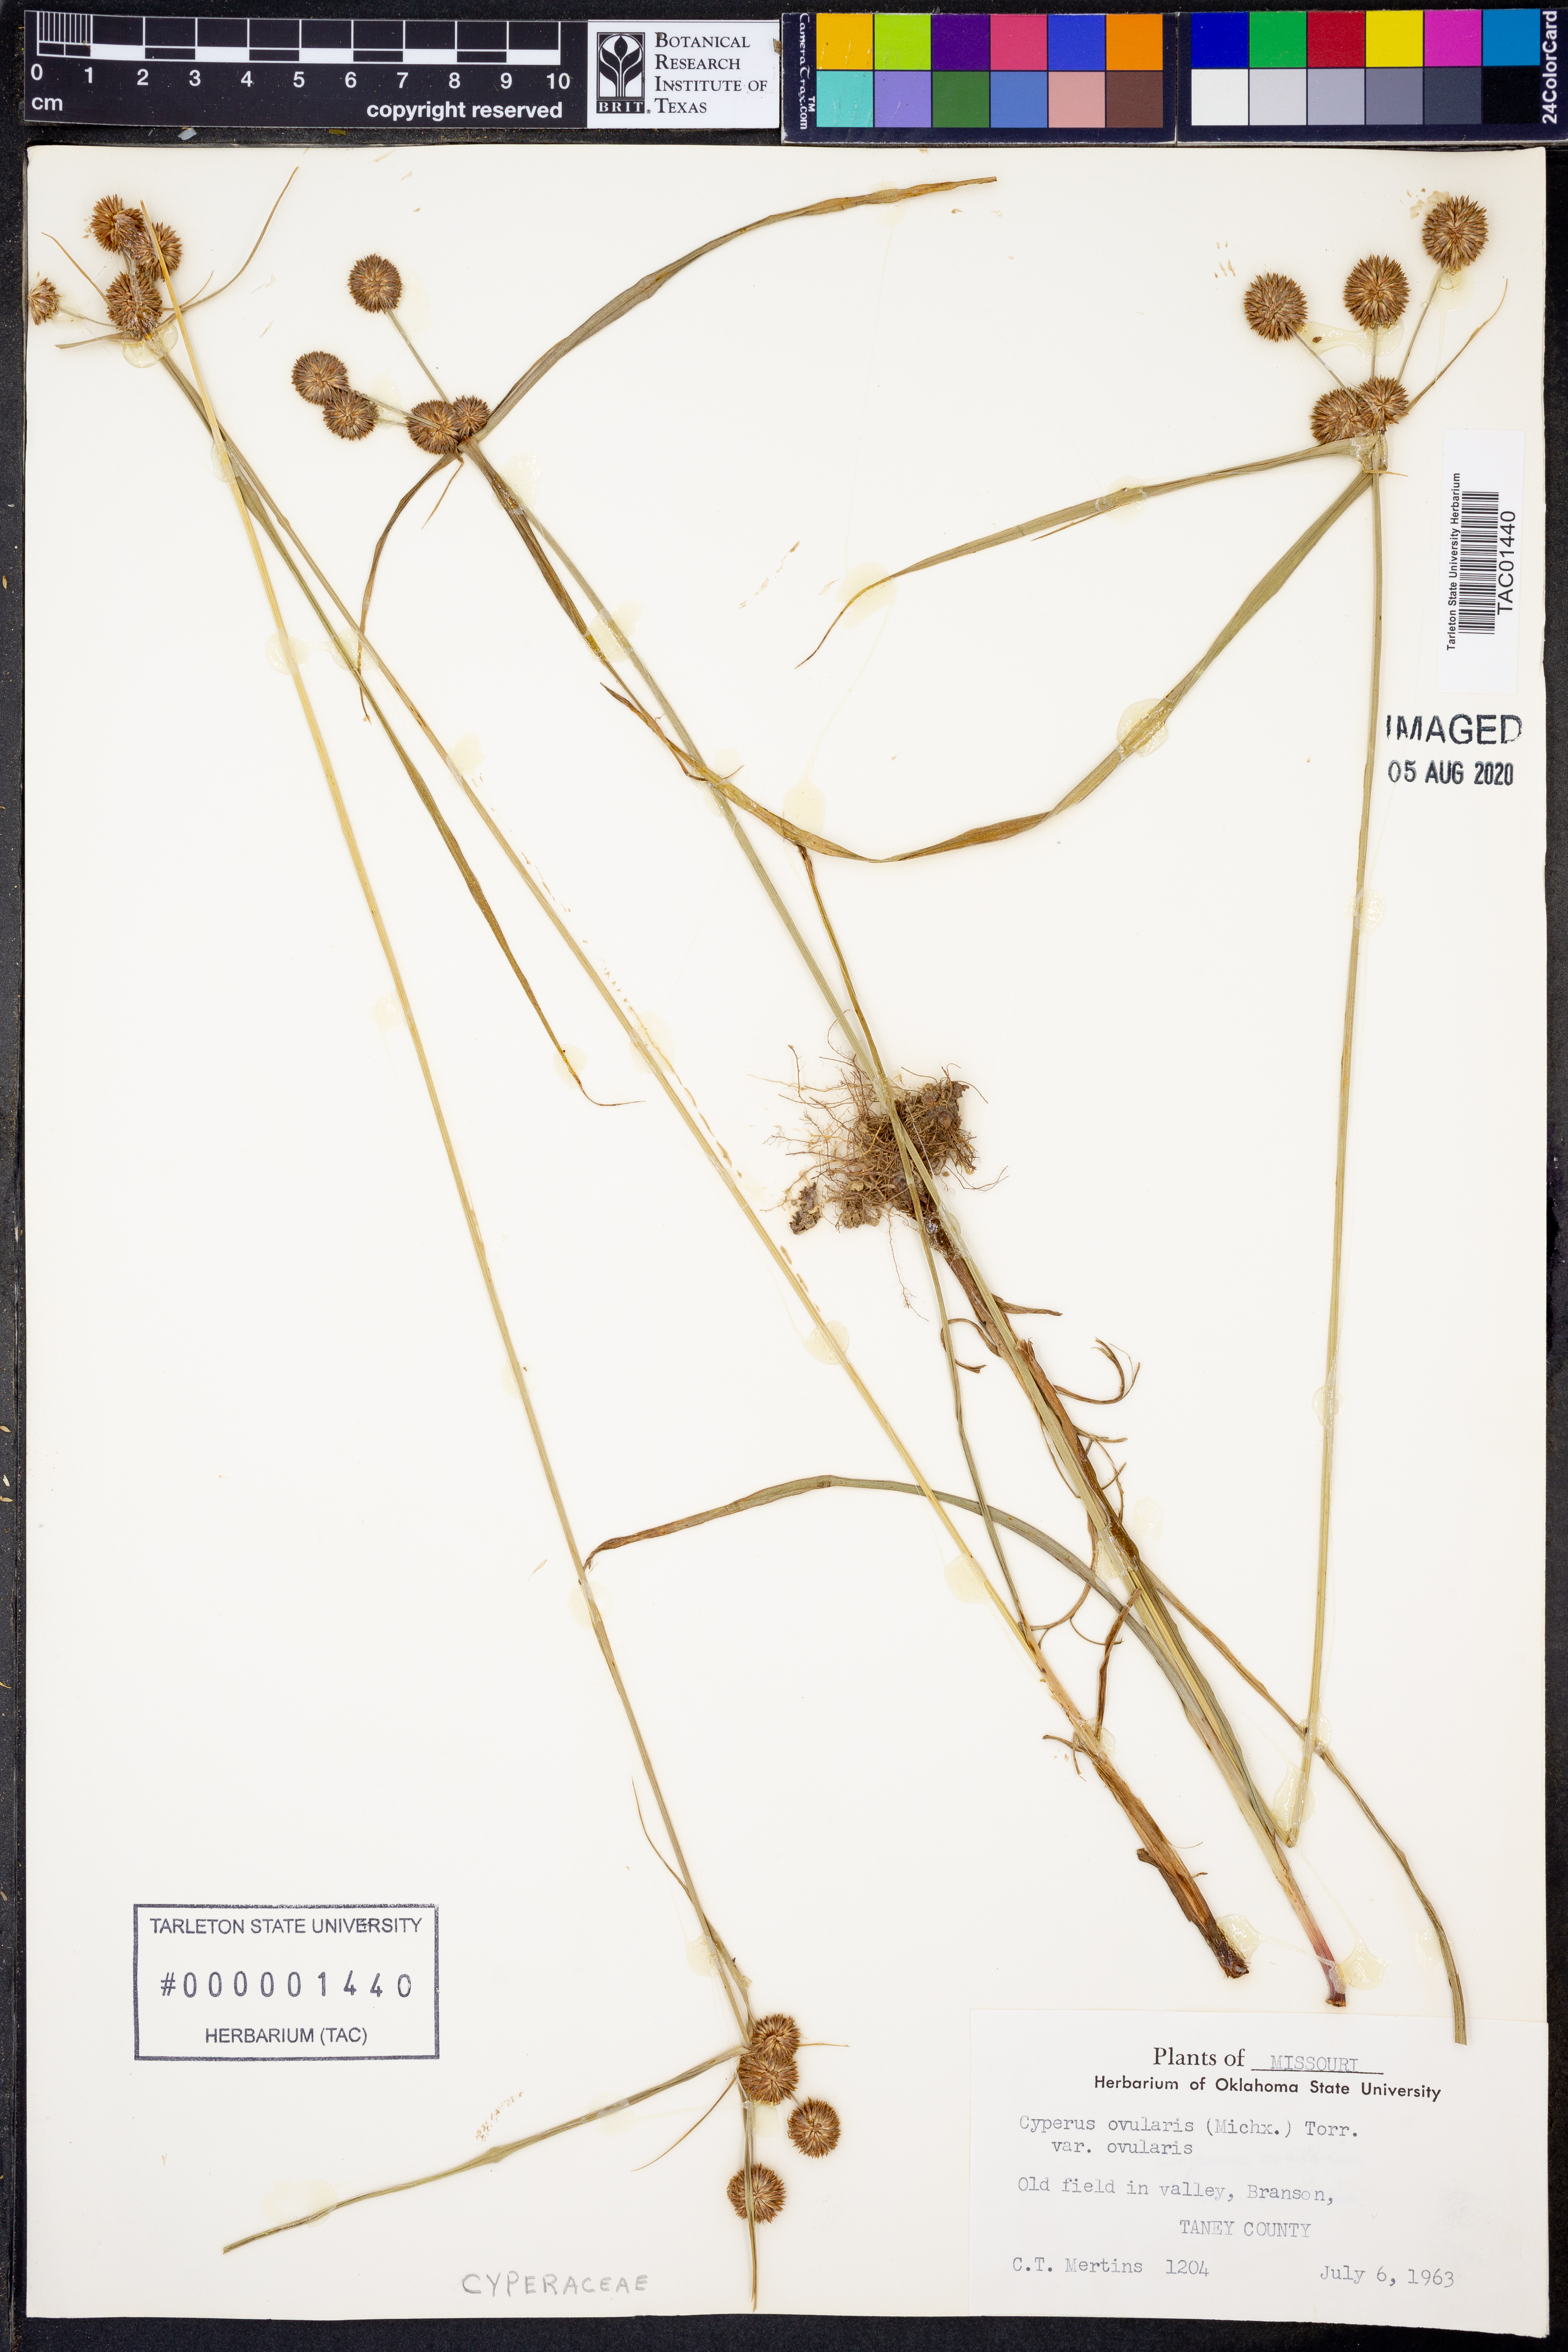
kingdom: Plantae
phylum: Tracheophyta
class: Liliopsida
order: Poales
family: Cyperaceae
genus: Cyperus
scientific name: Cyperus
